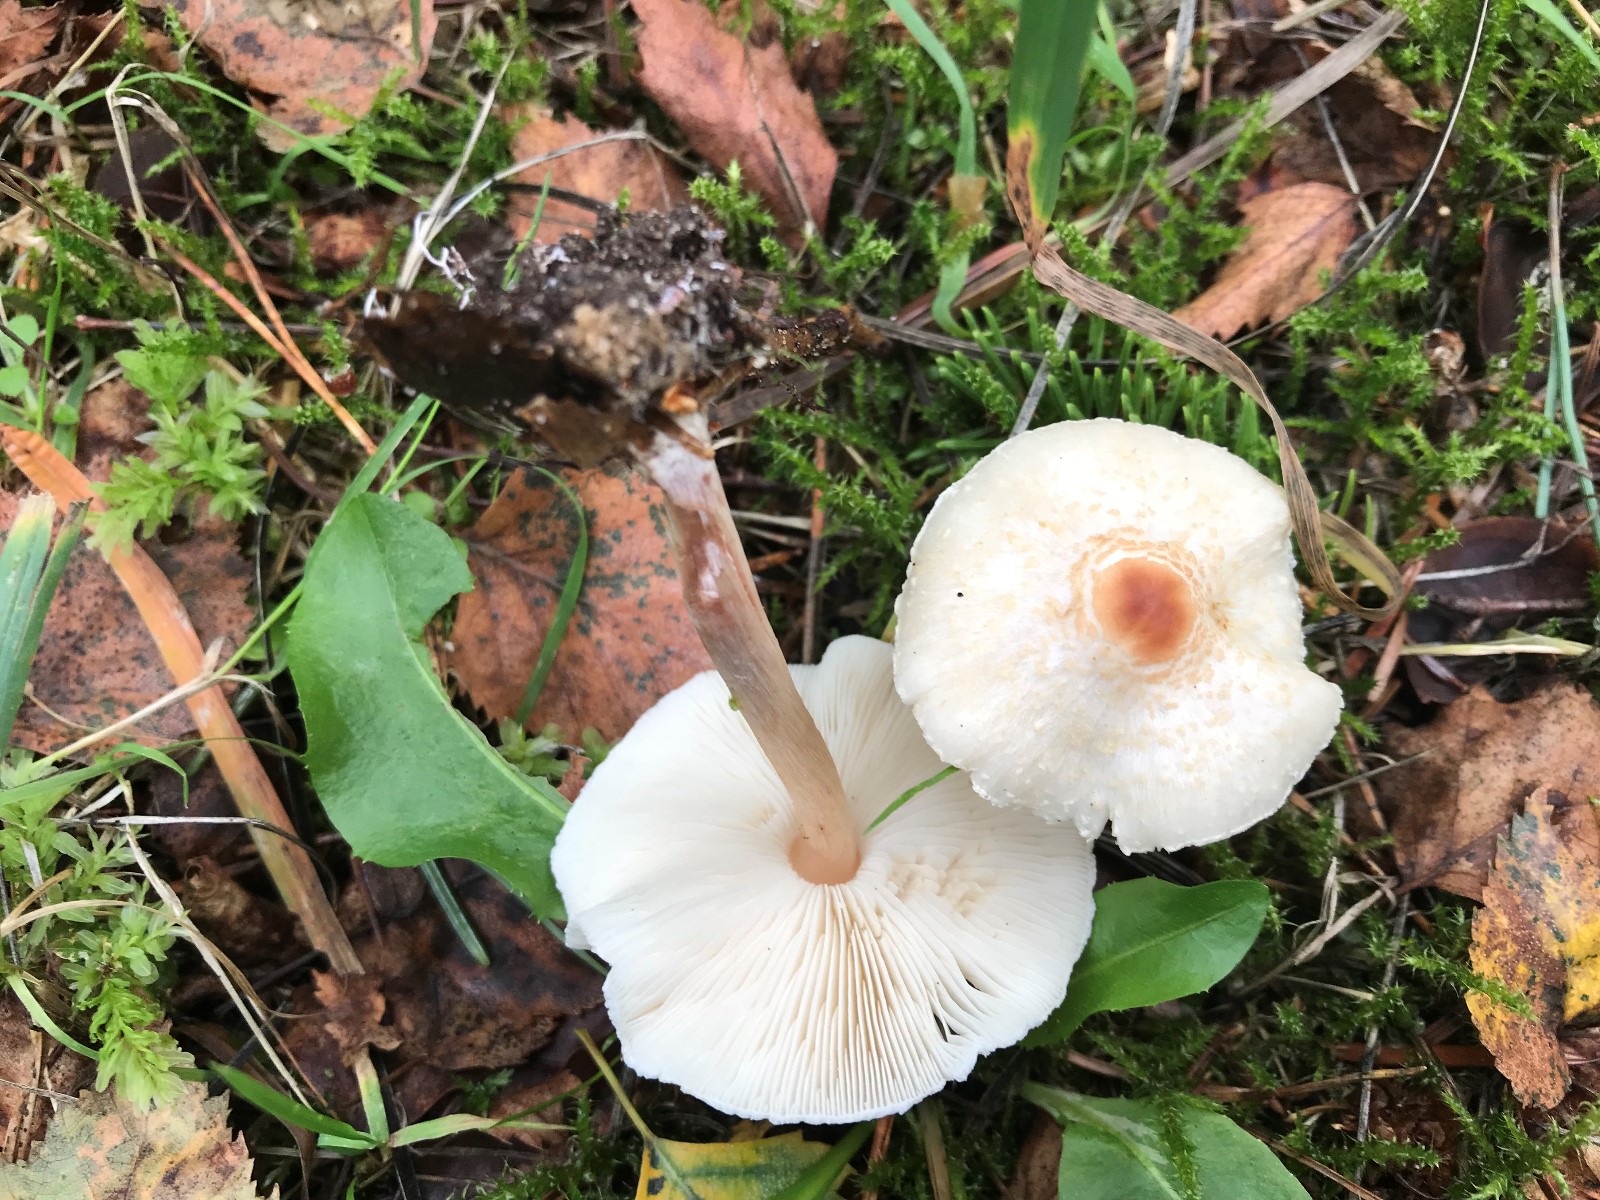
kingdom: Fungi
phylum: Basidiomycota
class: Agaricomycetes
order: Agaricales
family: Agaricaceae
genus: Lepiota
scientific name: Lepiota cristata
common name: stinkende parasolhat
